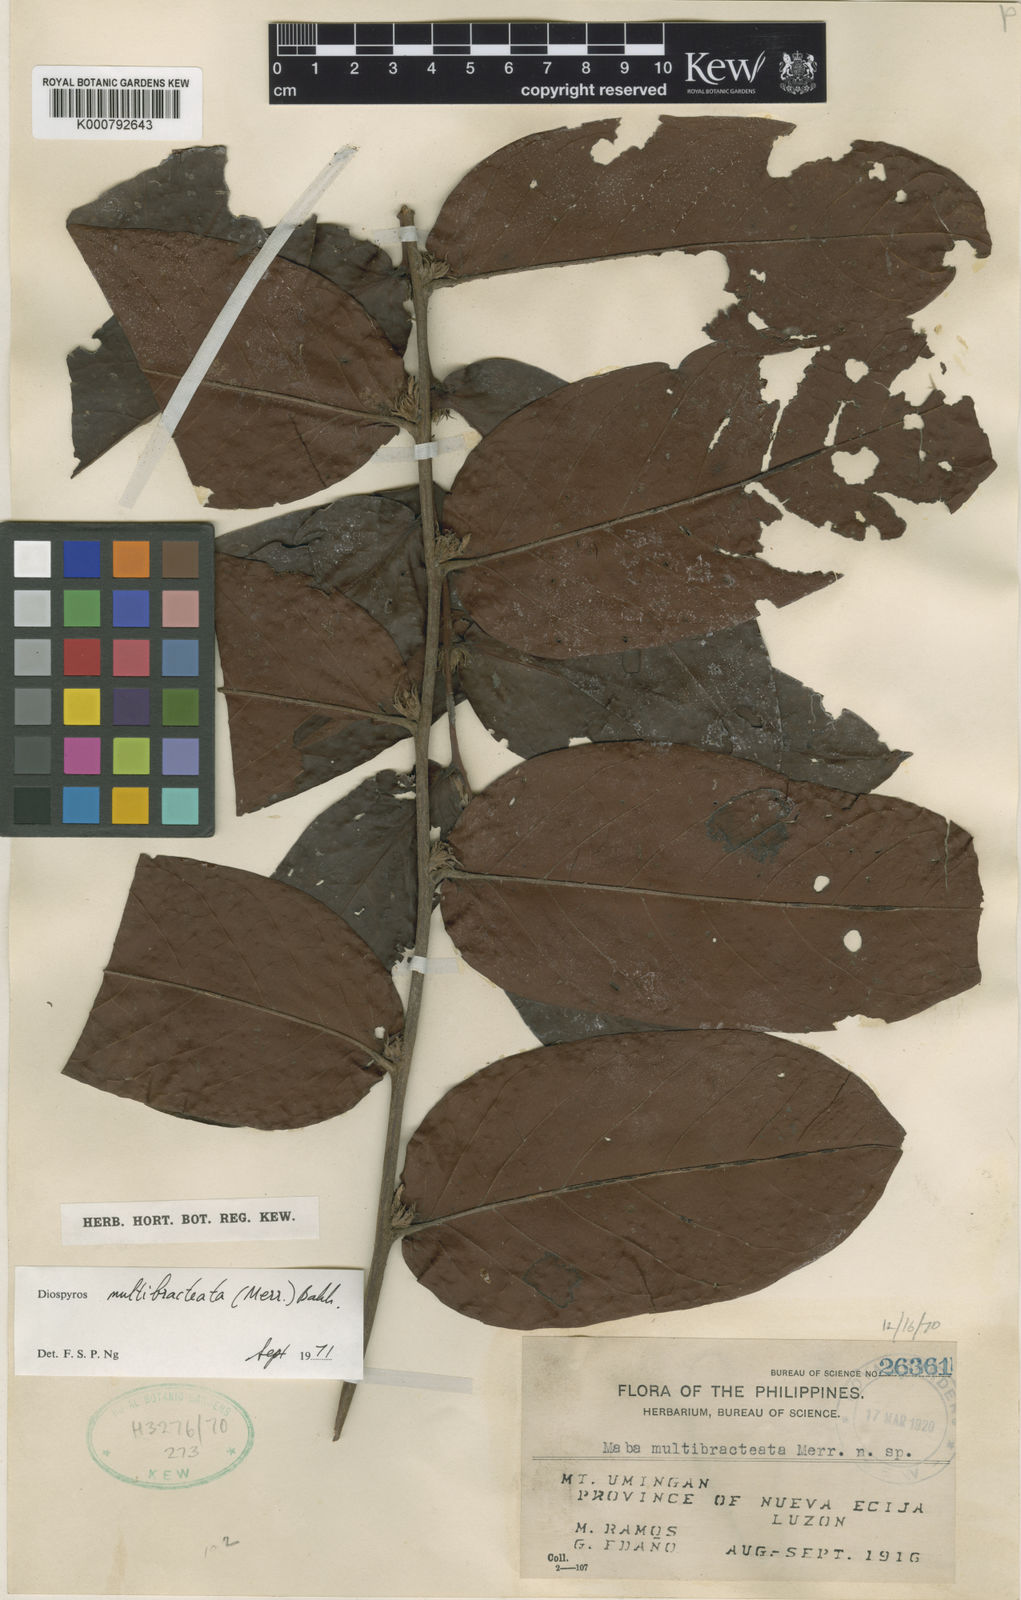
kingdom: Plantae
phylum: Tracheophyta
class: Magnoliopsida
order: Ericales
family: Ebenaceae
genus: Diospyros
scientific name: Diospyros multibracteata
